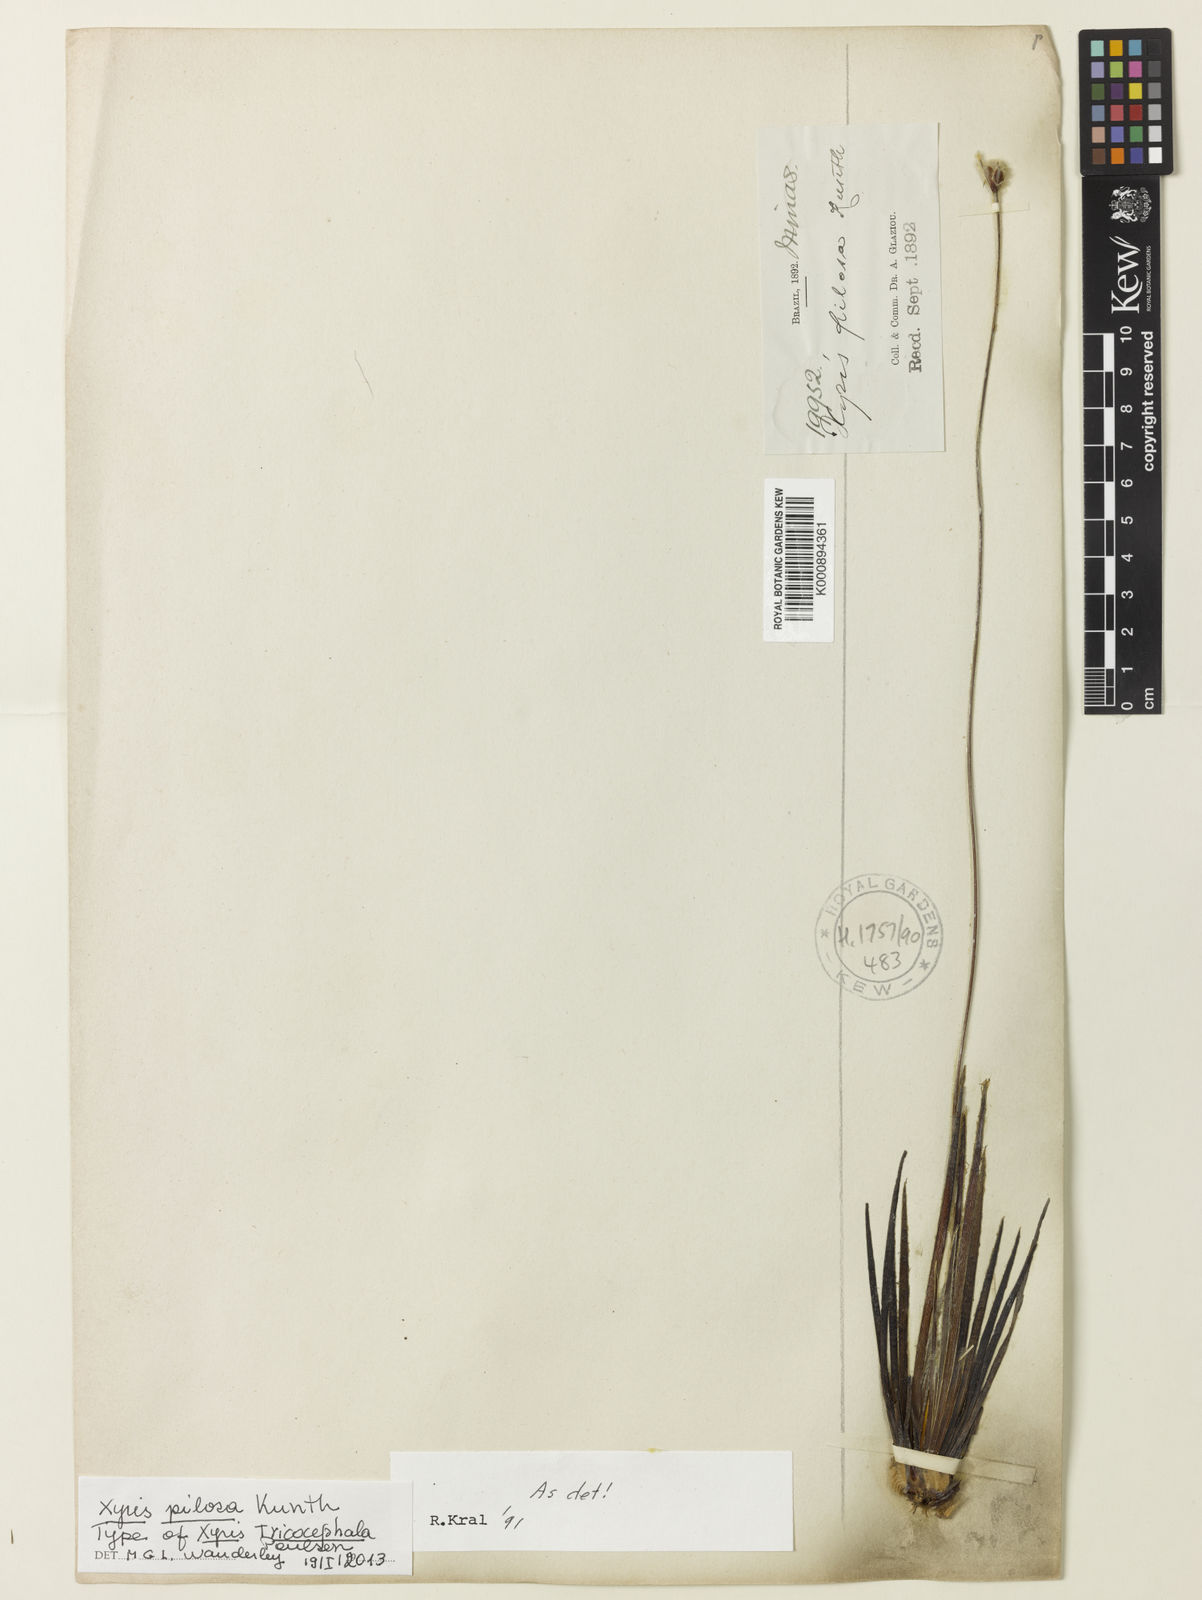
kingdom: Plantae
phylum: Tracheophyta
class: Liliopsida
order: Poales
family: Xyridaceae
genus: Xyris
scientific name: Xyris
